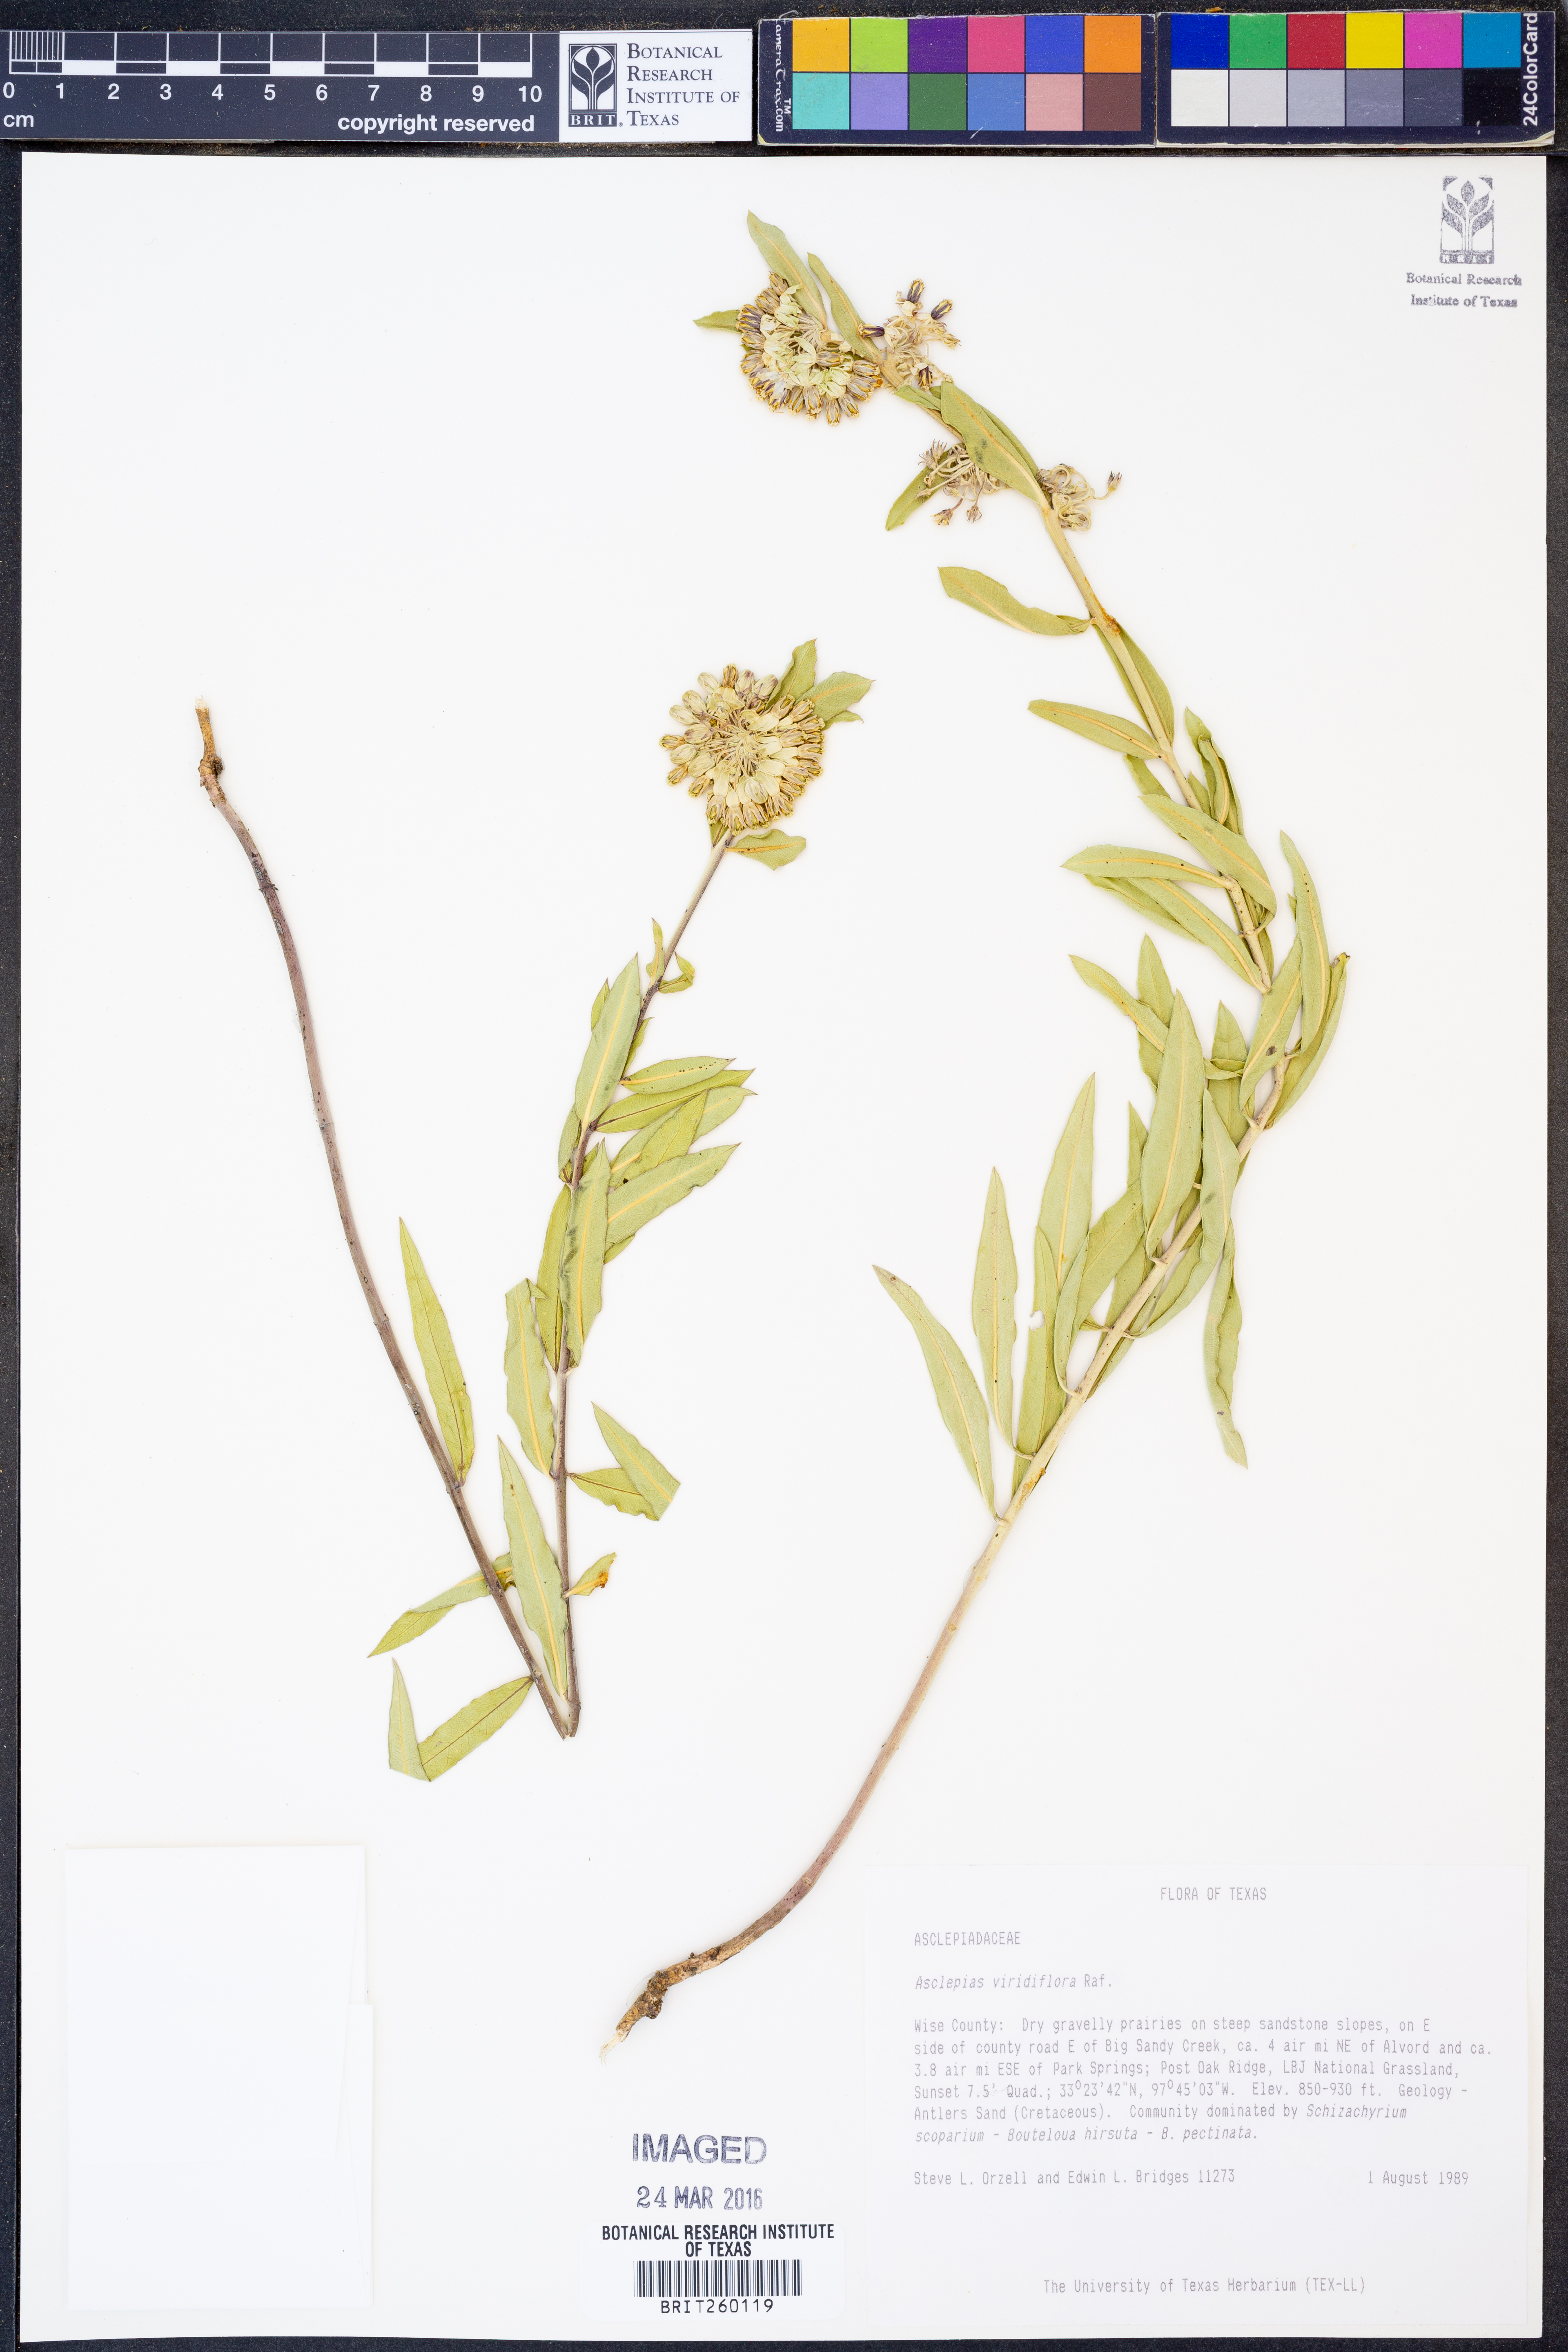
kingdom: Plantae
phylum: Tracheophyta
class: Magnoliopsida
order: Gentianales
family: Apocynaceae
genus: Asclepias
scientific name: Asclepias viridiflora
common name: Green comet milkweed
